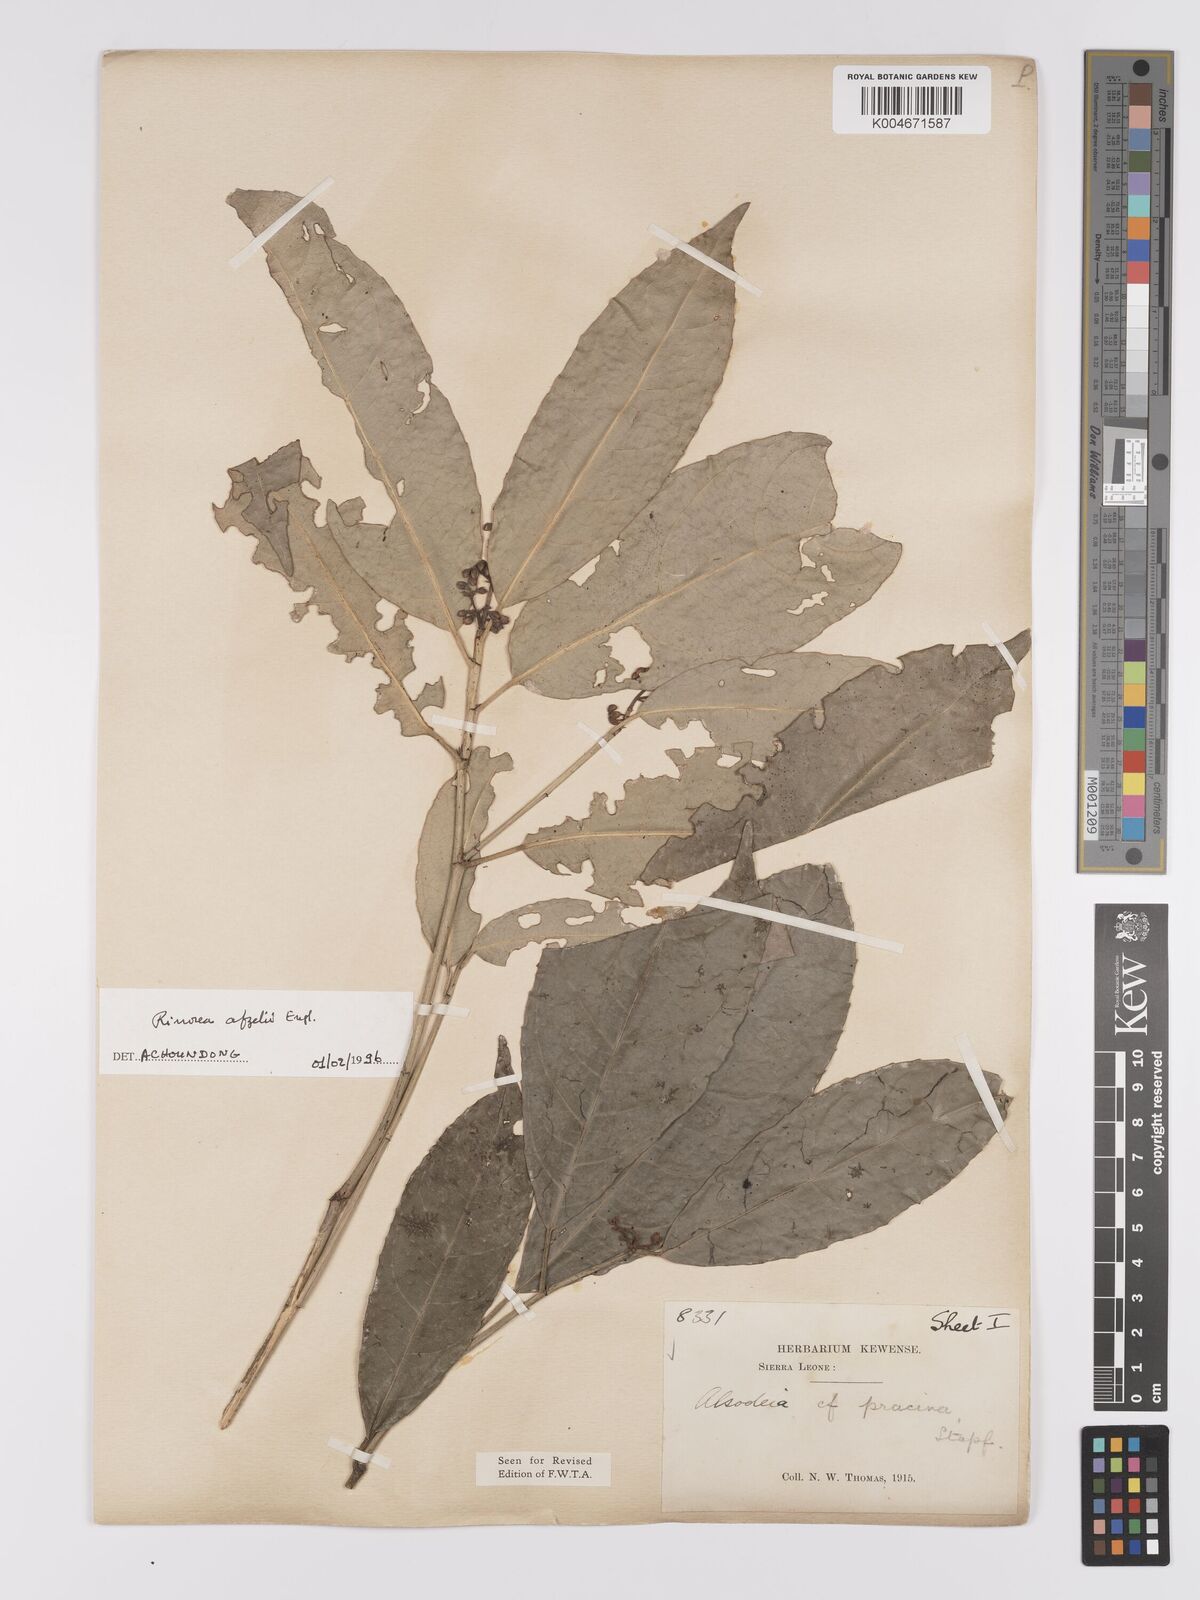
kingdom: Plantae
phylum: Tracheophyta
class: Magnoliopsida
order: Malpighiales
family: Violaceae
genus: Rinorea
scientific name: Rinorea afzelii
